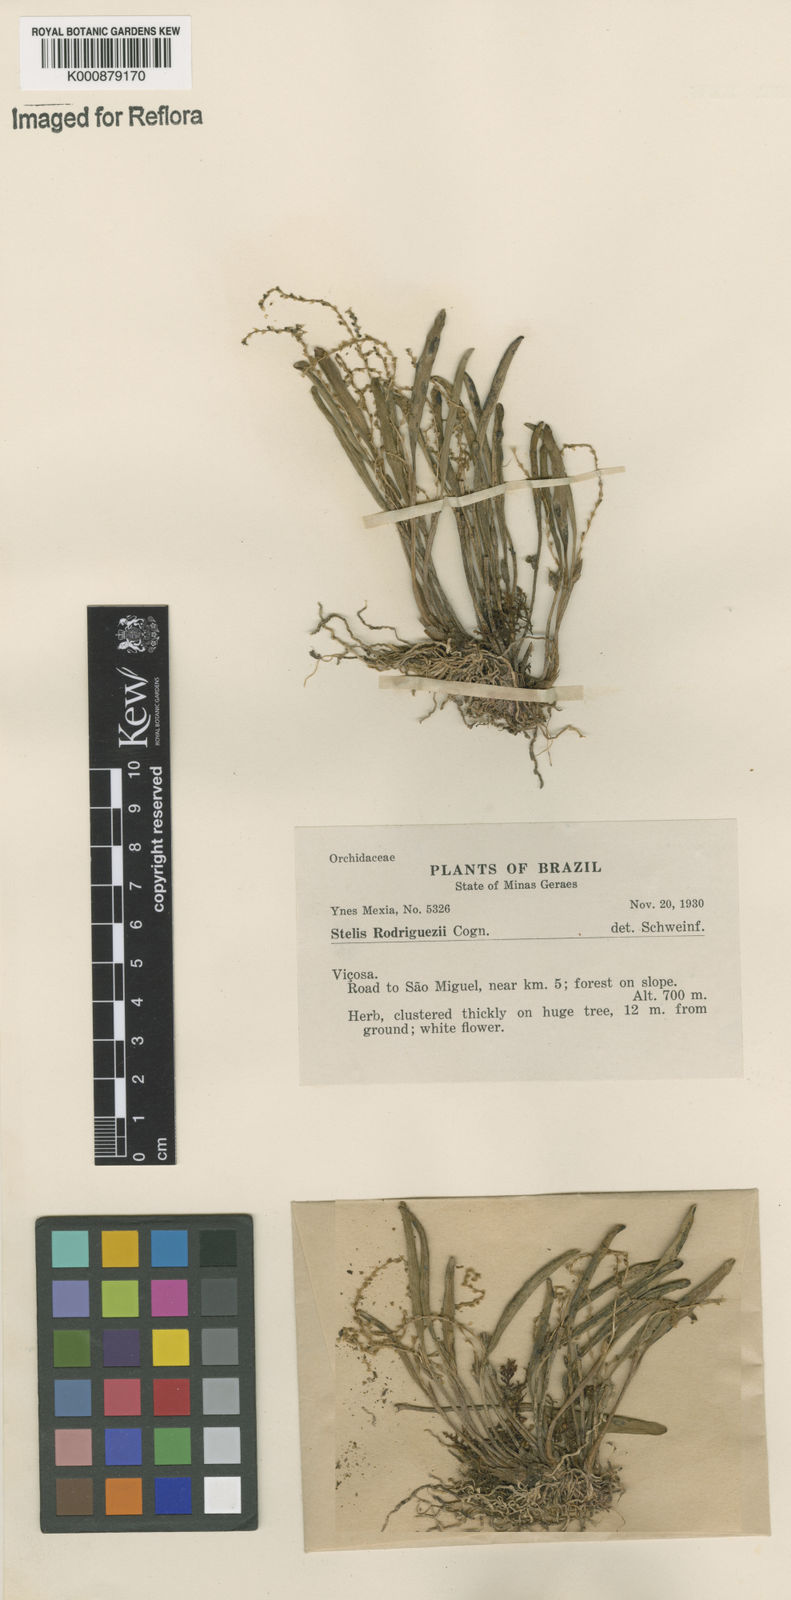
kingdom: Plantae
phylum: Tracheophyta
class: Liliopsida
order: Asparagales
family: Orchidaceae
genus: Stelis
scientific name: Stelis aprica
